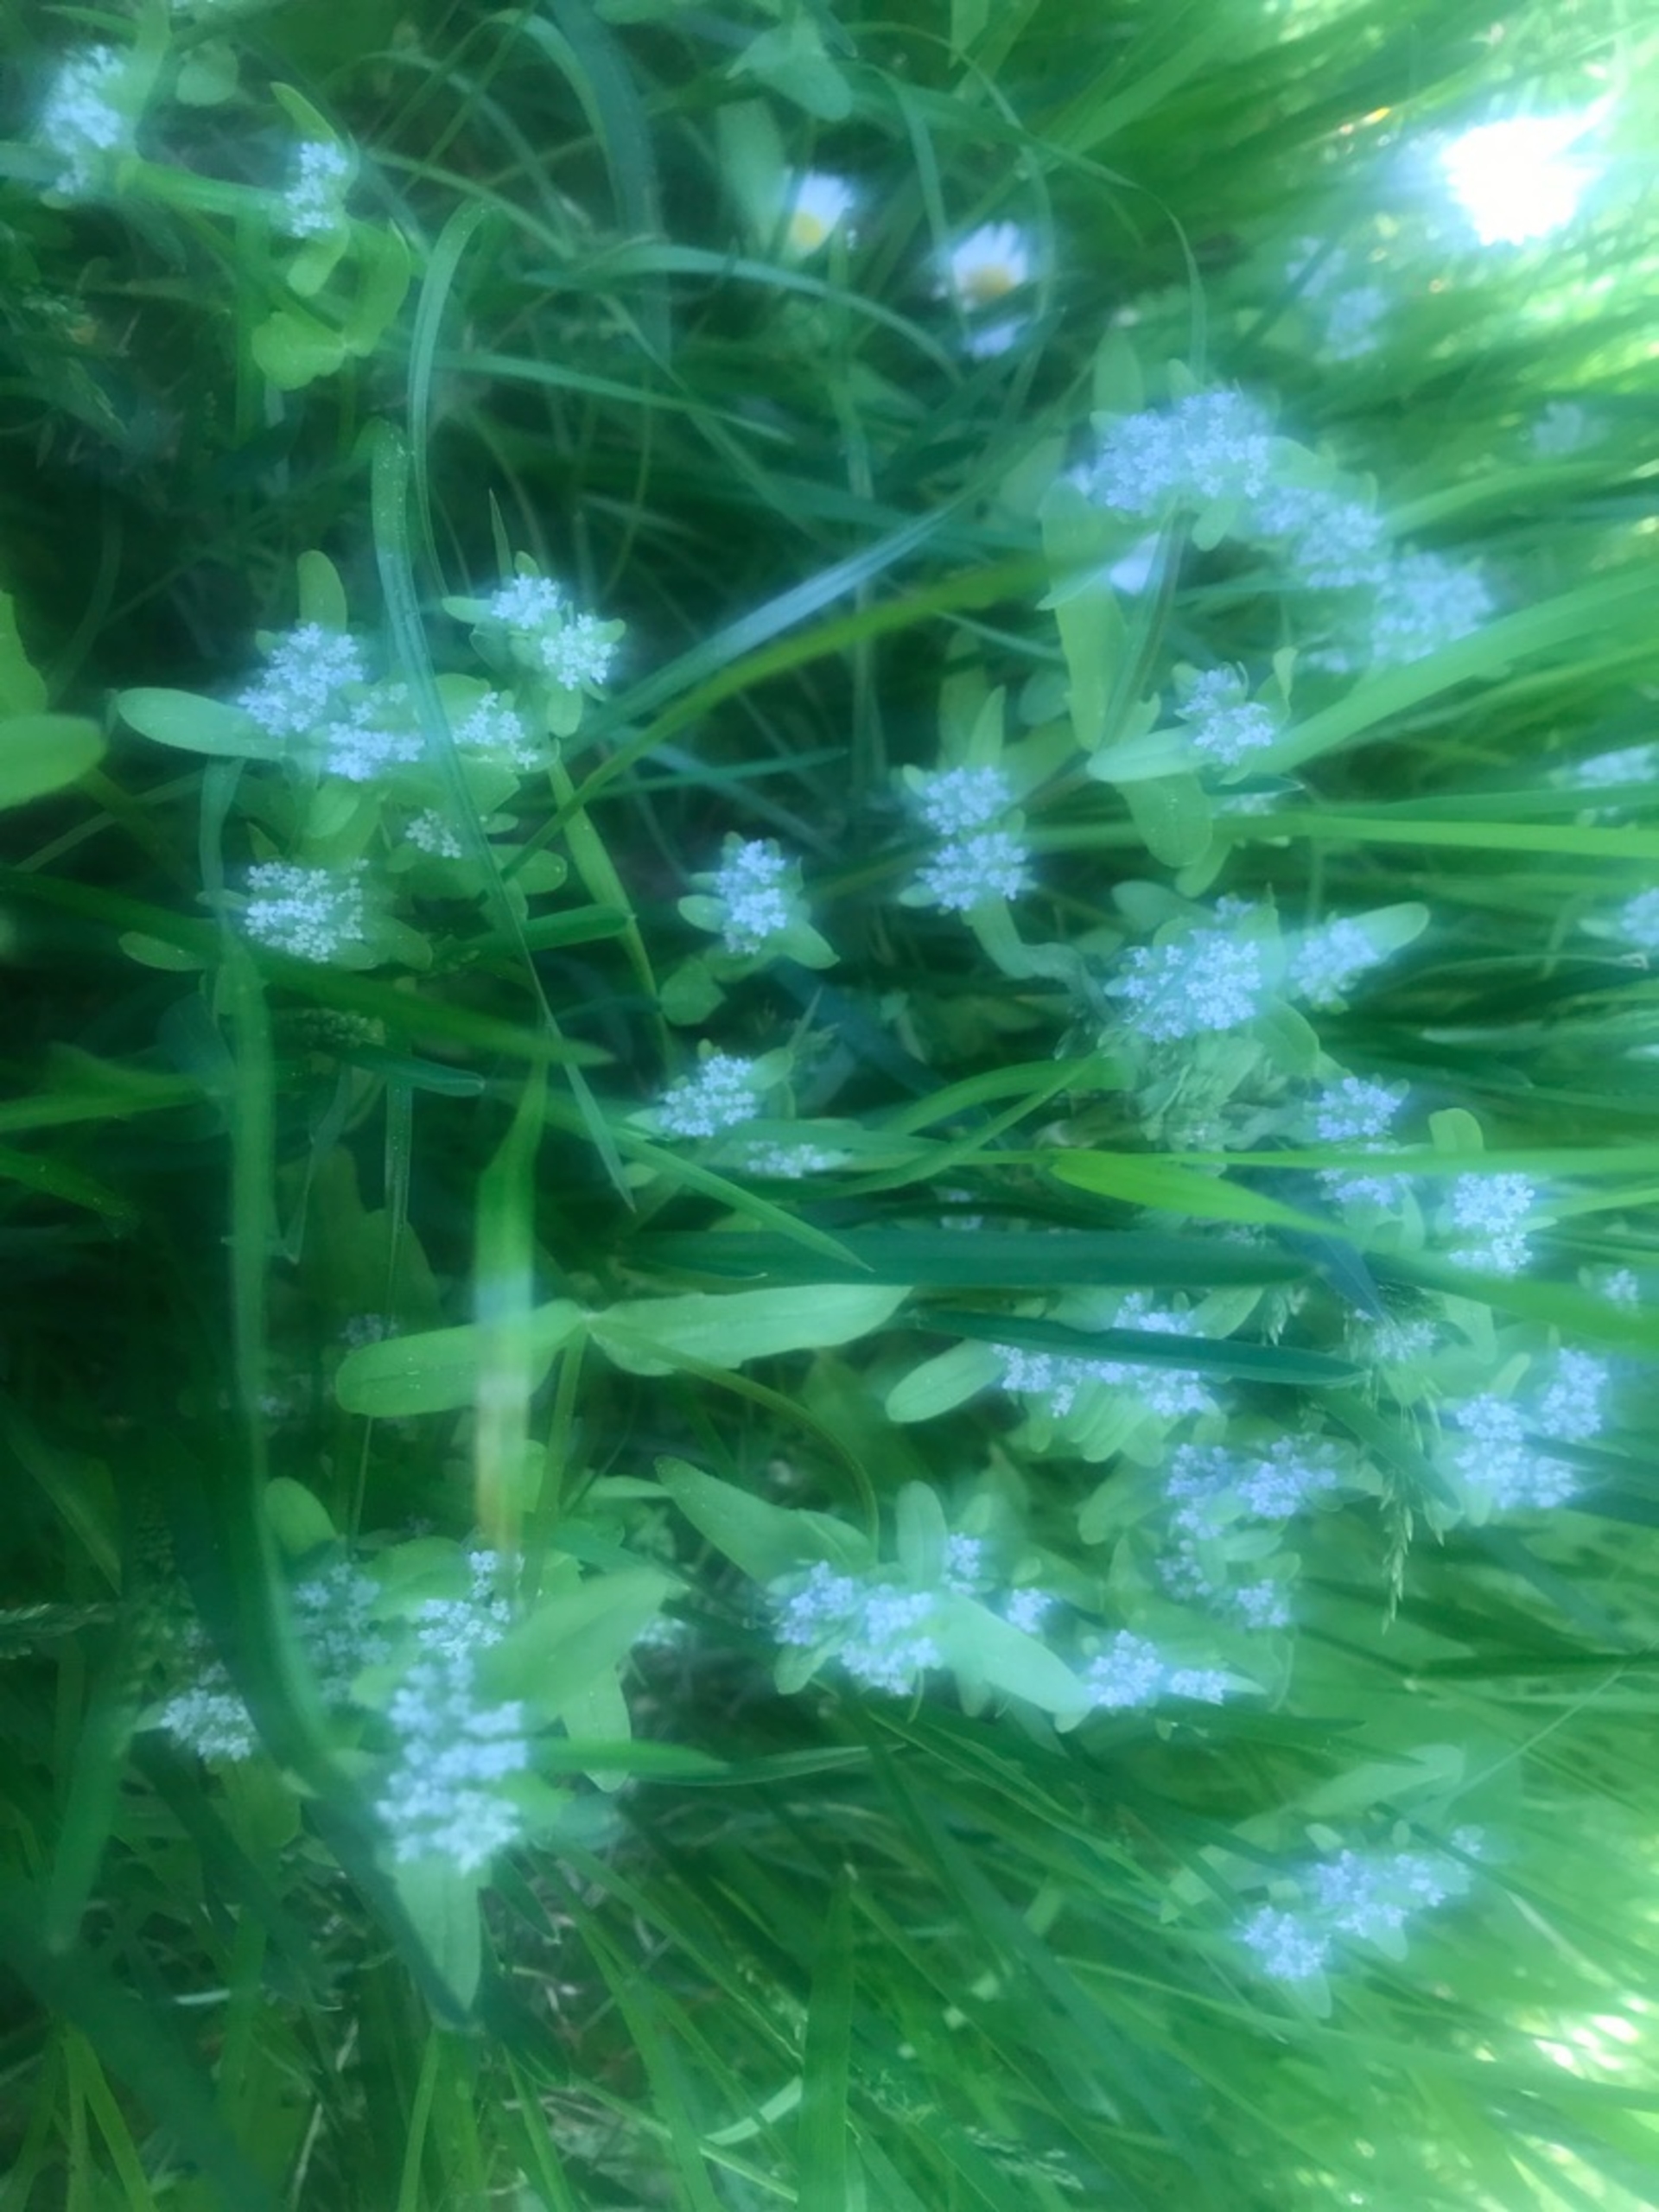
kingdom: Plantae
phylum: Tracheophyta
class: Magnoliopsida
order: Dipsacales
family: Caprifoliaceae
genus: Valerianella
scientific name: Valerianella locusta
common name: Tandfri vårsalat
